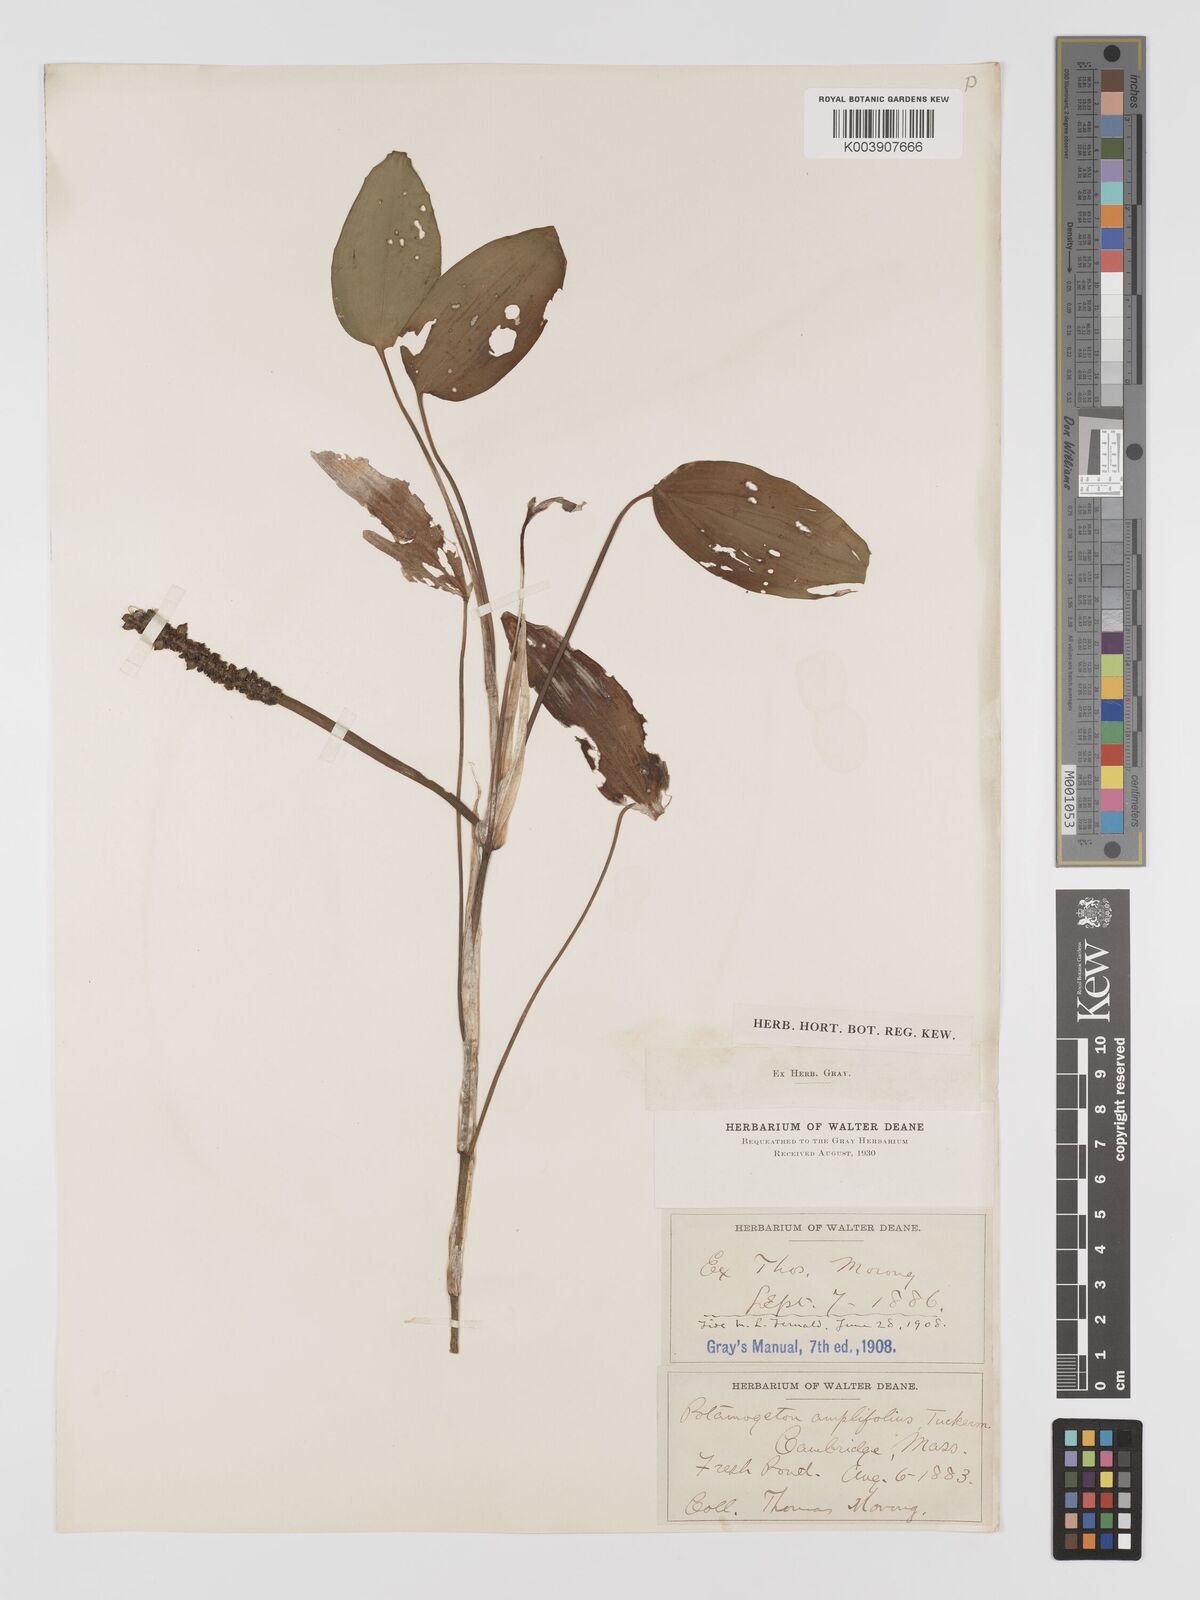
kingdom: Plantae
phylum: Tracheophyta
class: Liliopsida
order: Alismatales
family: Potamogetonaceae
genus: Potamogeton
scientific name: Potamogeton amplifolius
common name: Broad-leaved pondweed
